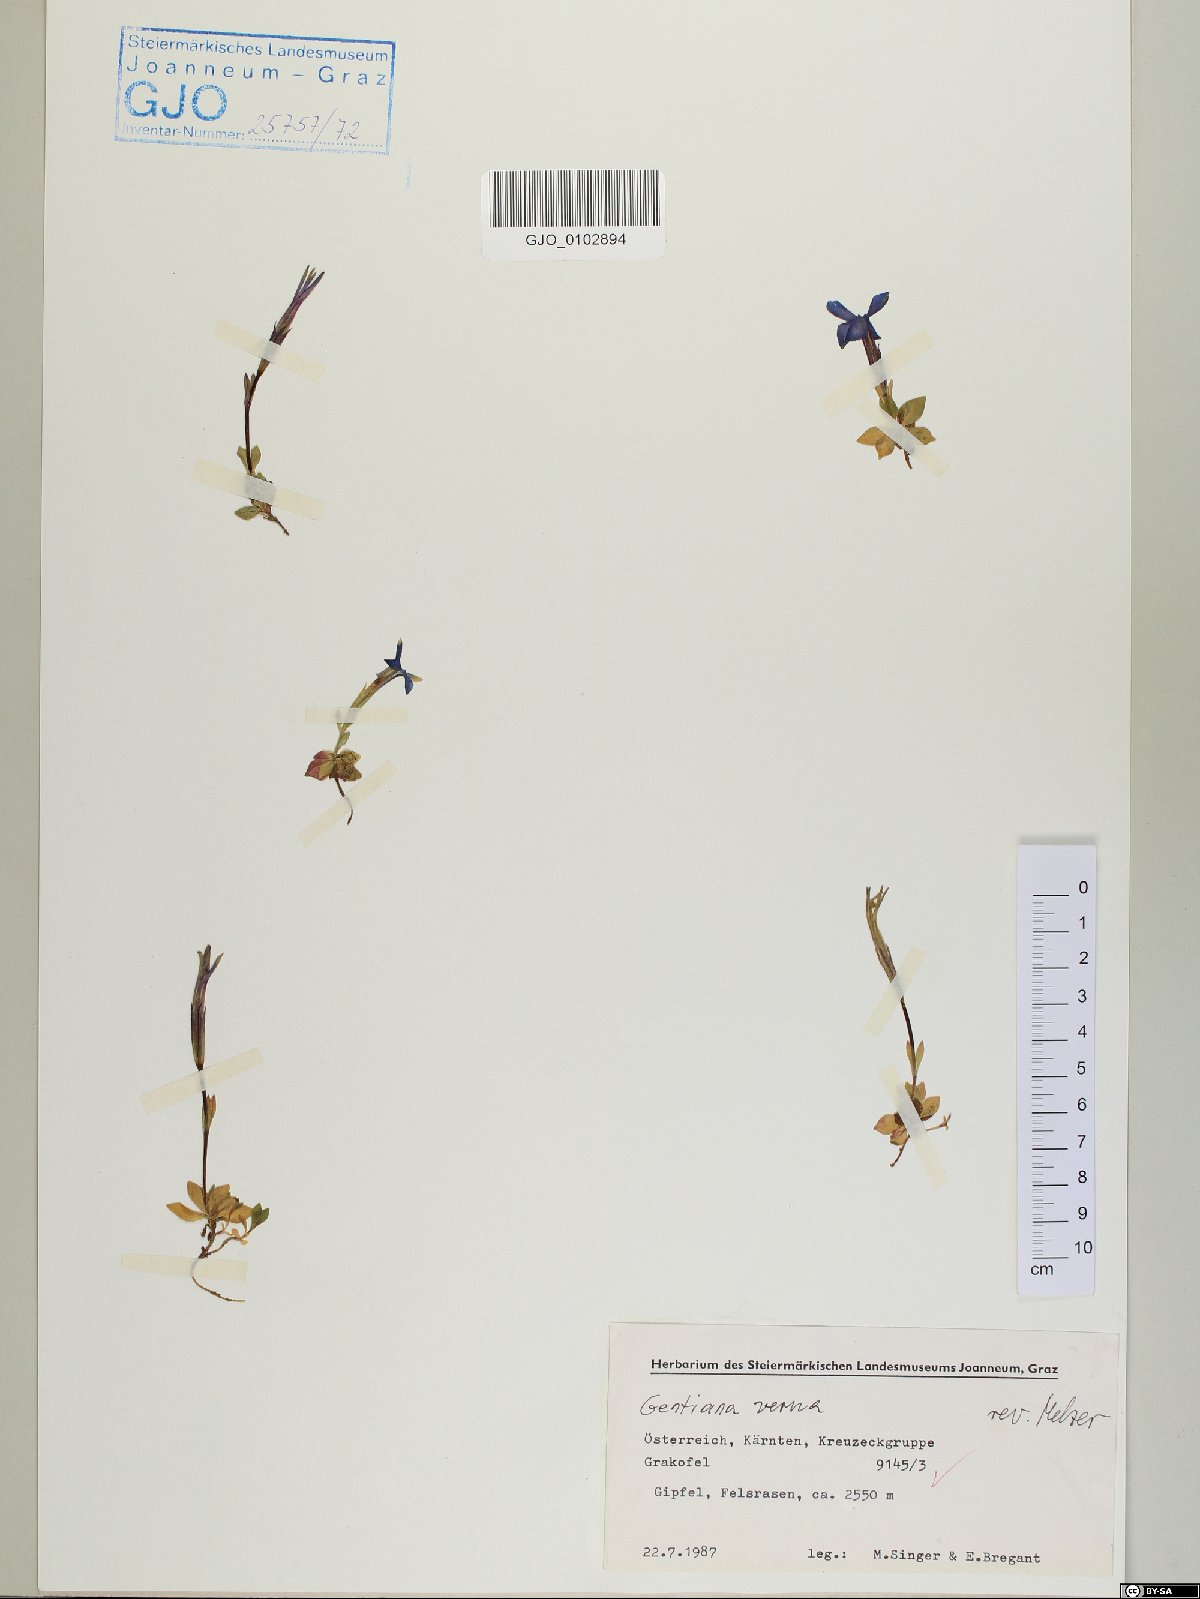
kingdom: Plantae
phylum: Tracheophyta
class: Magnoliopsida
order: Gentianales
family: Gentianaceae
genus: Gentiana
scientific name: Gentiana verna
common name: Spring gentian
